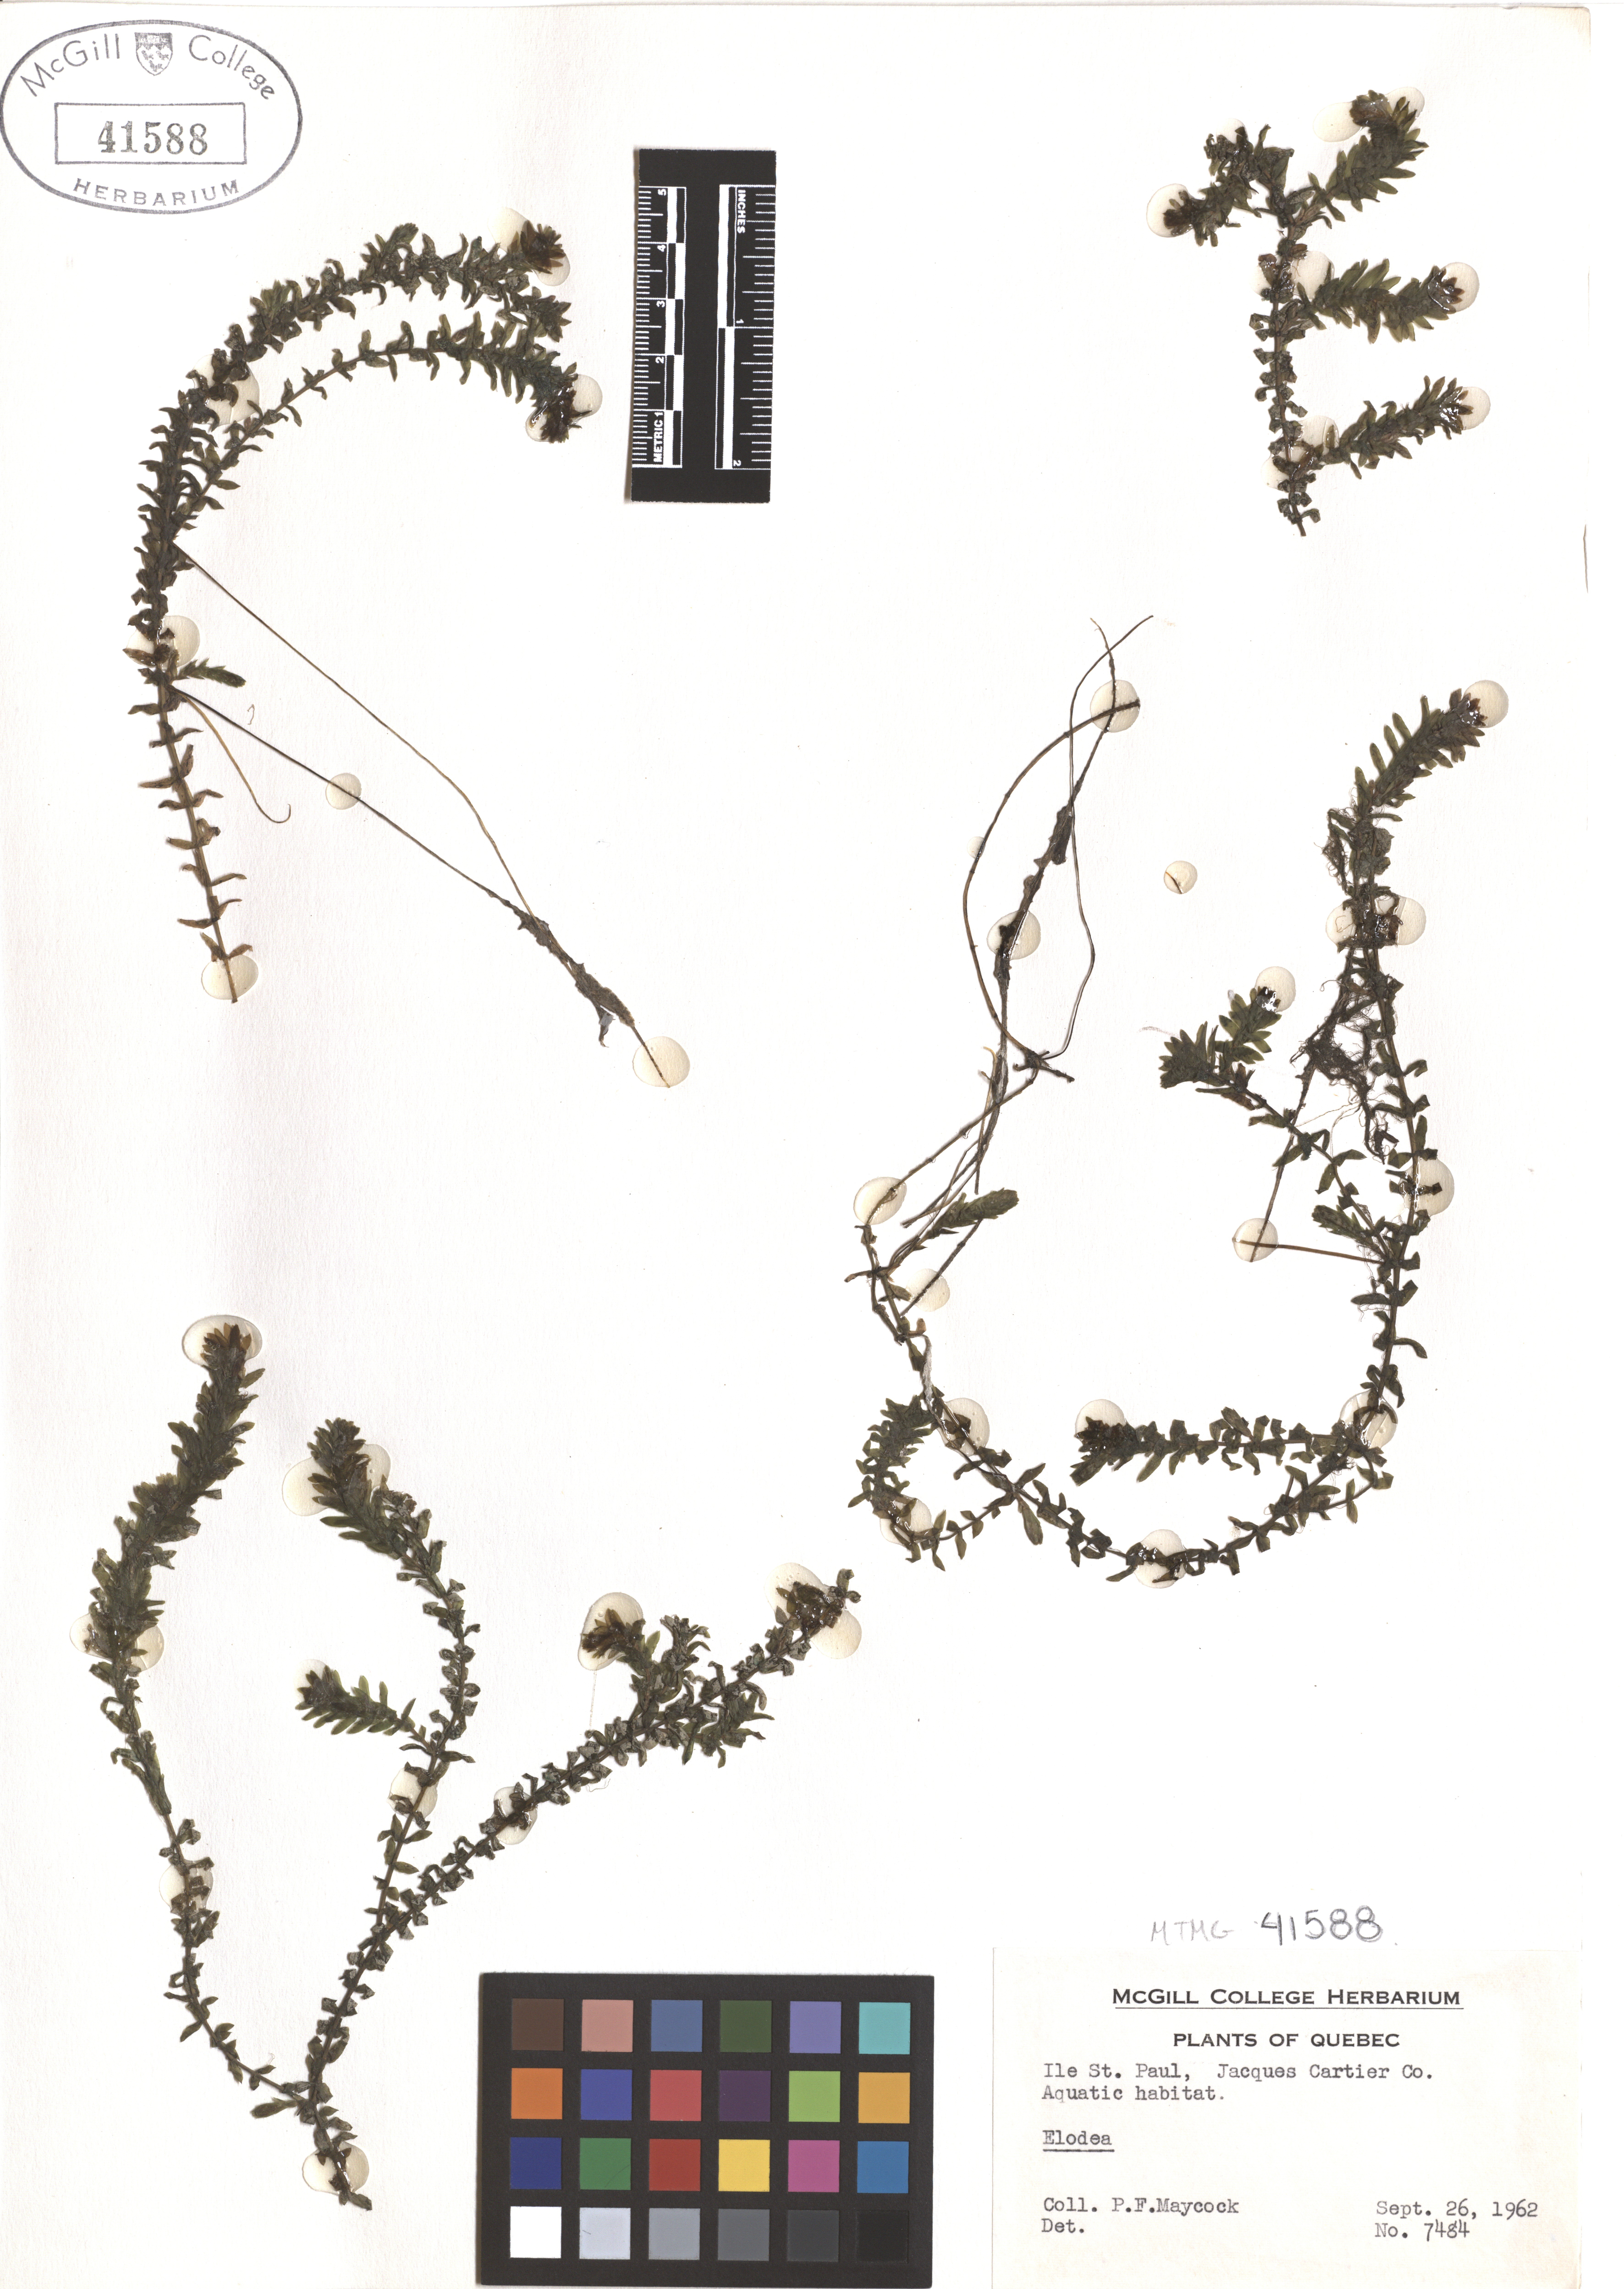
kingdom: Plantae
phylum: Tracheophyta
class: Liliopsida
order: Alismatales
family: Hydrocharitaceae
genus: Elodea
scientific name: Elodea
